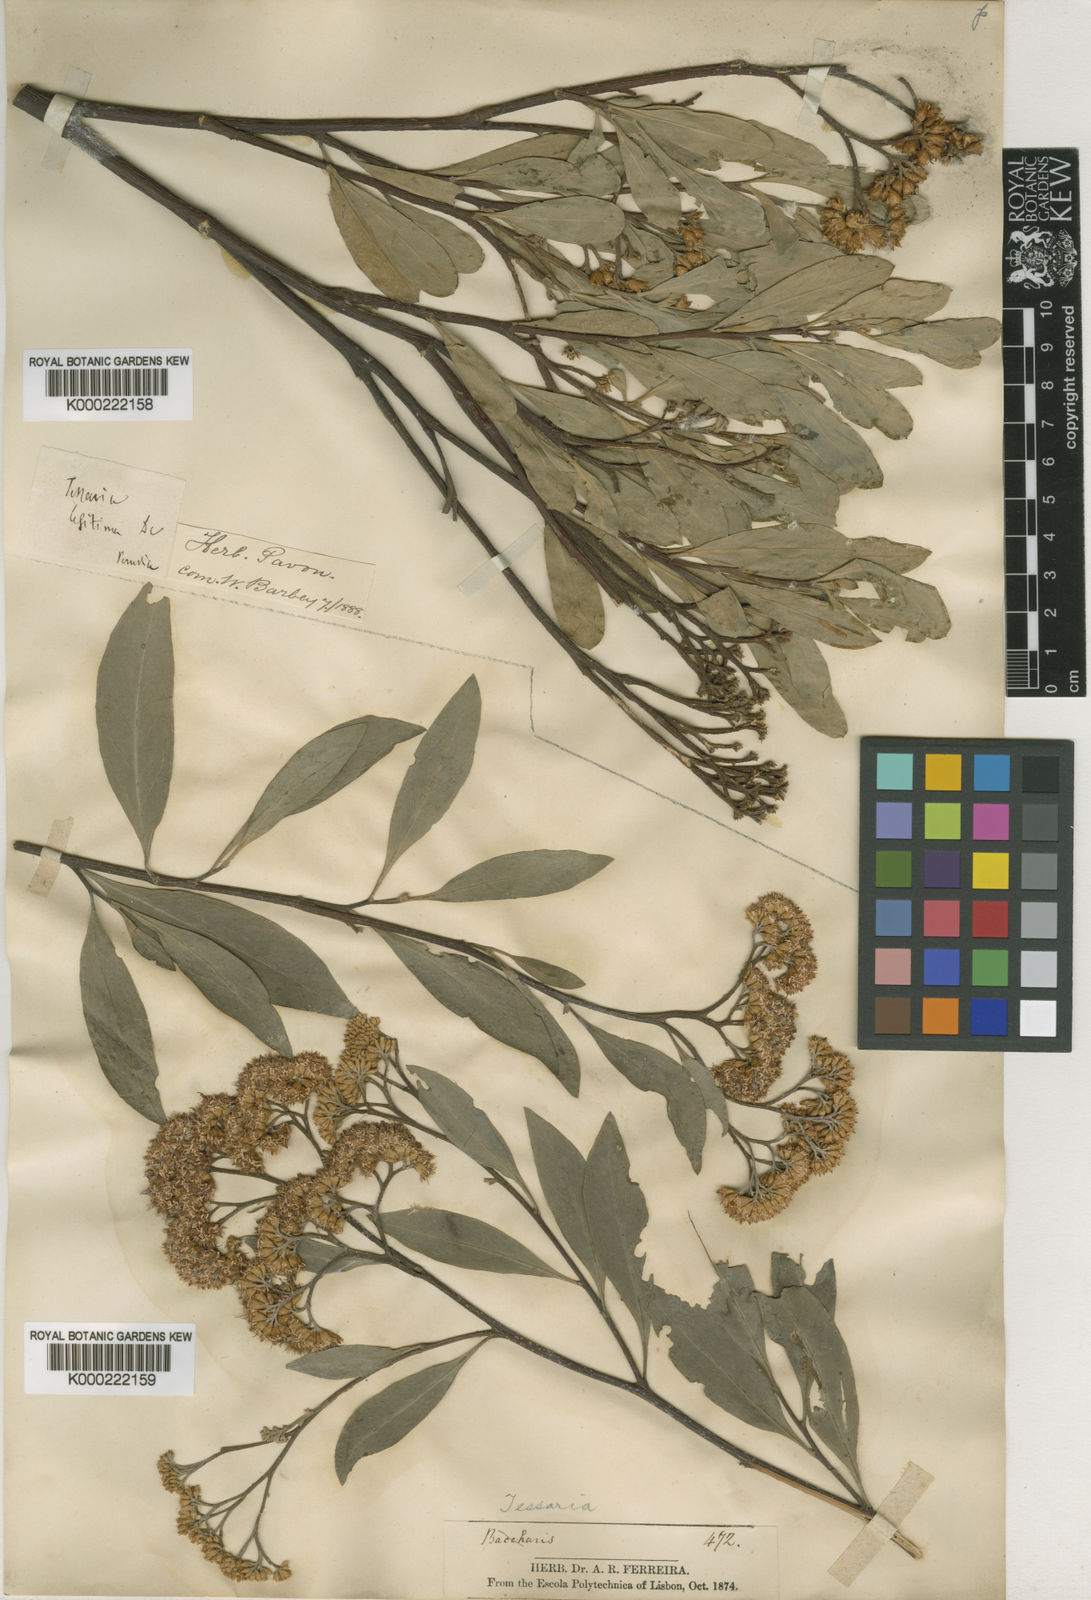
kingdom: Plantae
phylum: Tracheophyta
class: Magnoliopsida
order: Asterales
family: Asteraceae
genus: Tessaria
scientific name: Tessaria integrifolia
